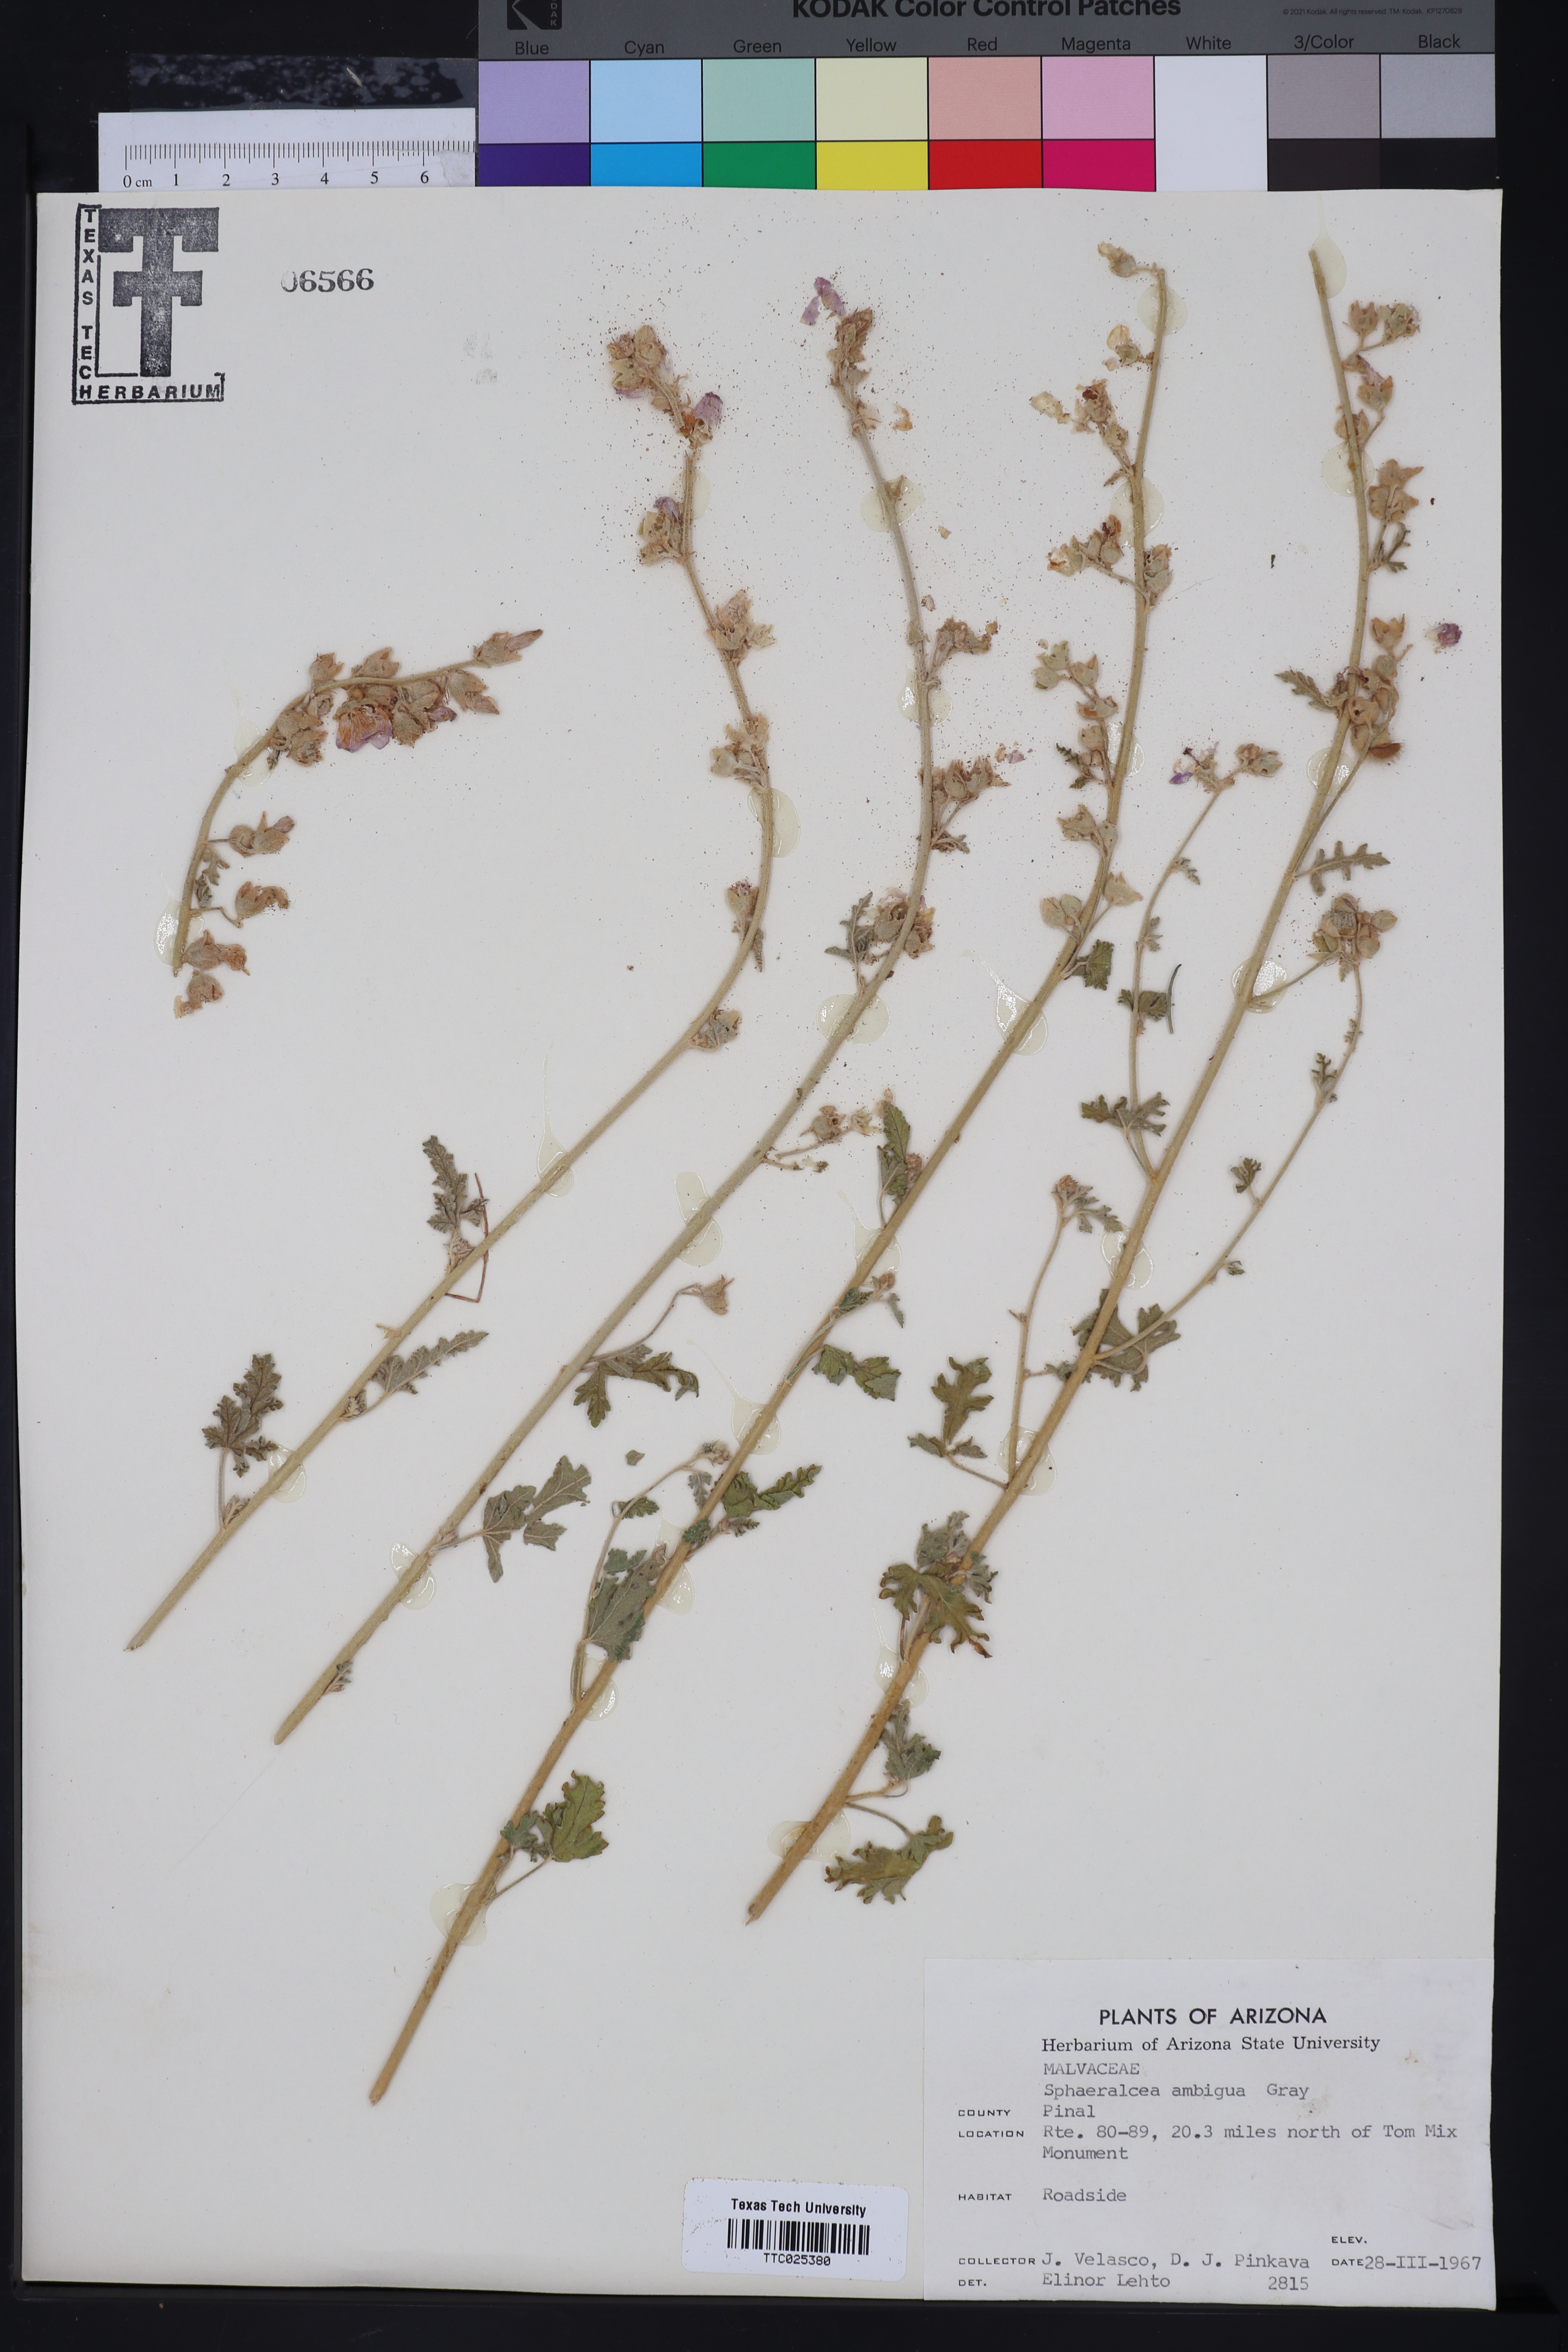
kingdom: Plantae
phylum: Tracheophyta
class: Magnoliopsida
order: Malvales
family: Malvaceae
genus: Sphaeralcea
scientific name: Sphaeralcea ambigua
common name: Apricot globe-mallow
